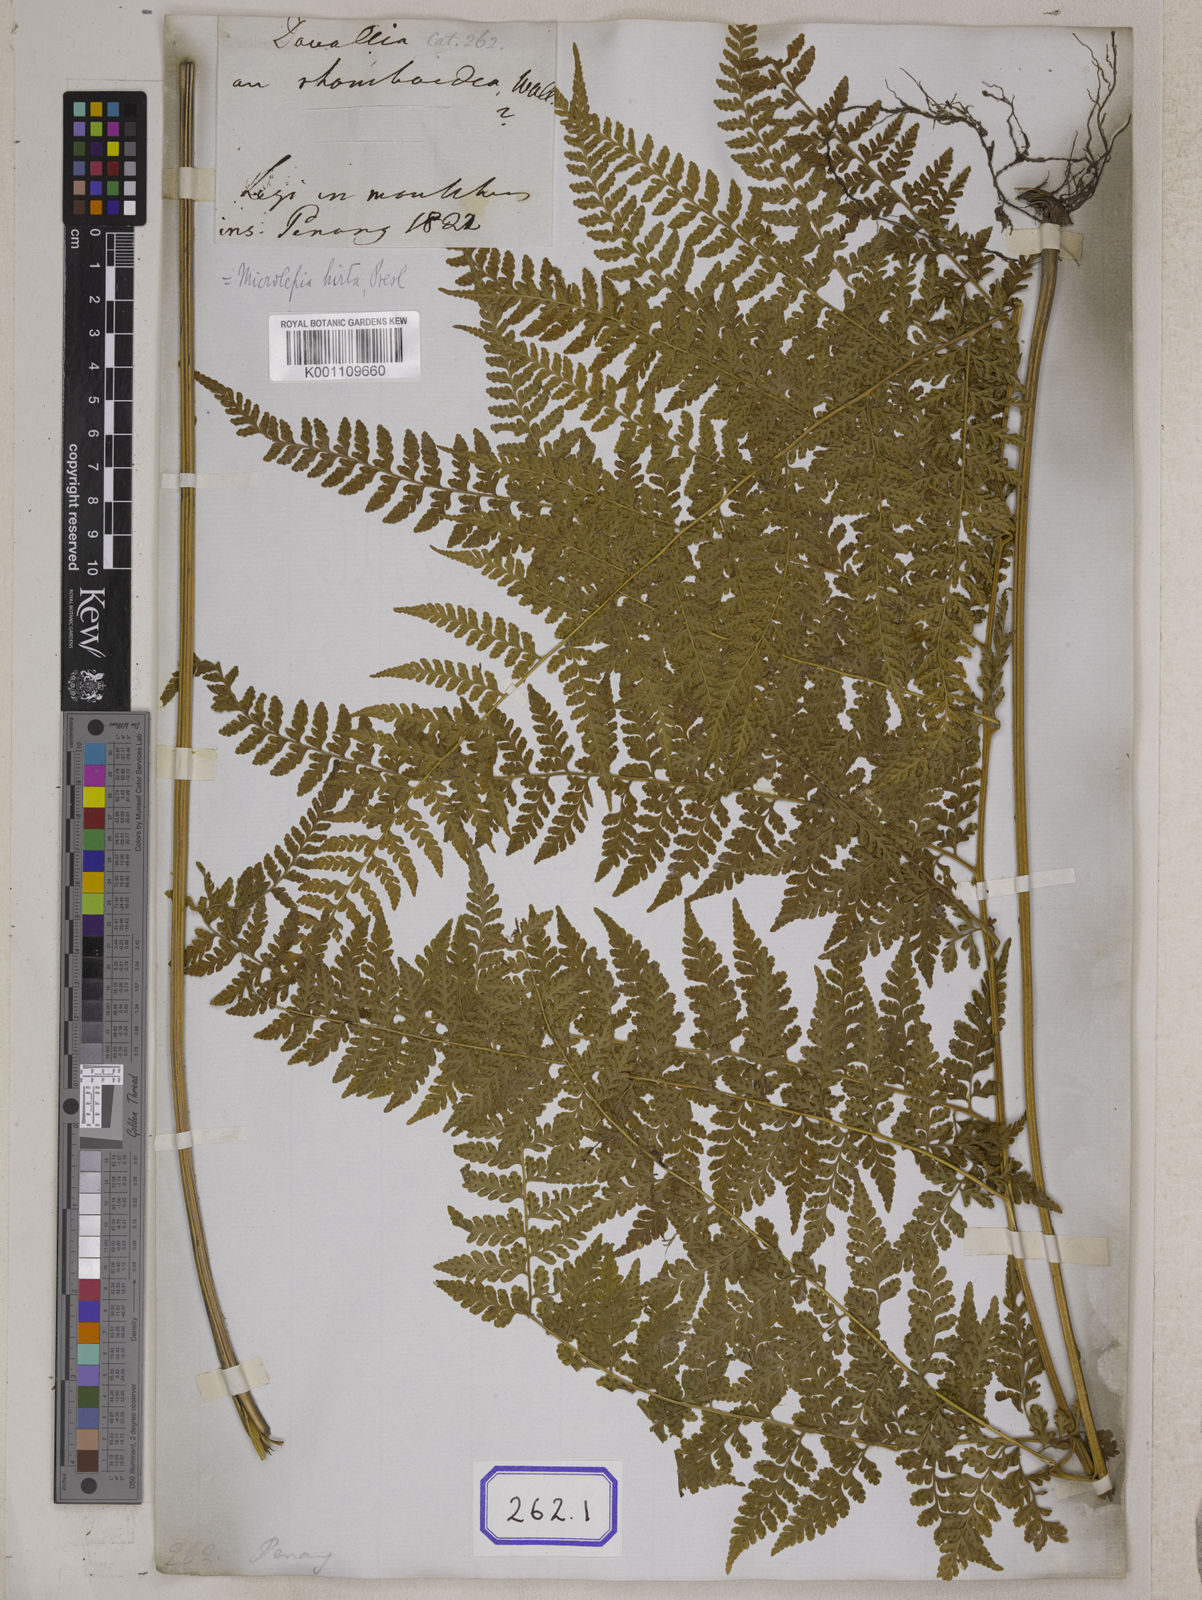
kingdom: Plantae
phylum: Tracheophyta
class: Polypodiopsida
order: Polypodiales
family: Dennstaedtiaceae
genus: Microlepia
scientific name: Microlepia marginata
